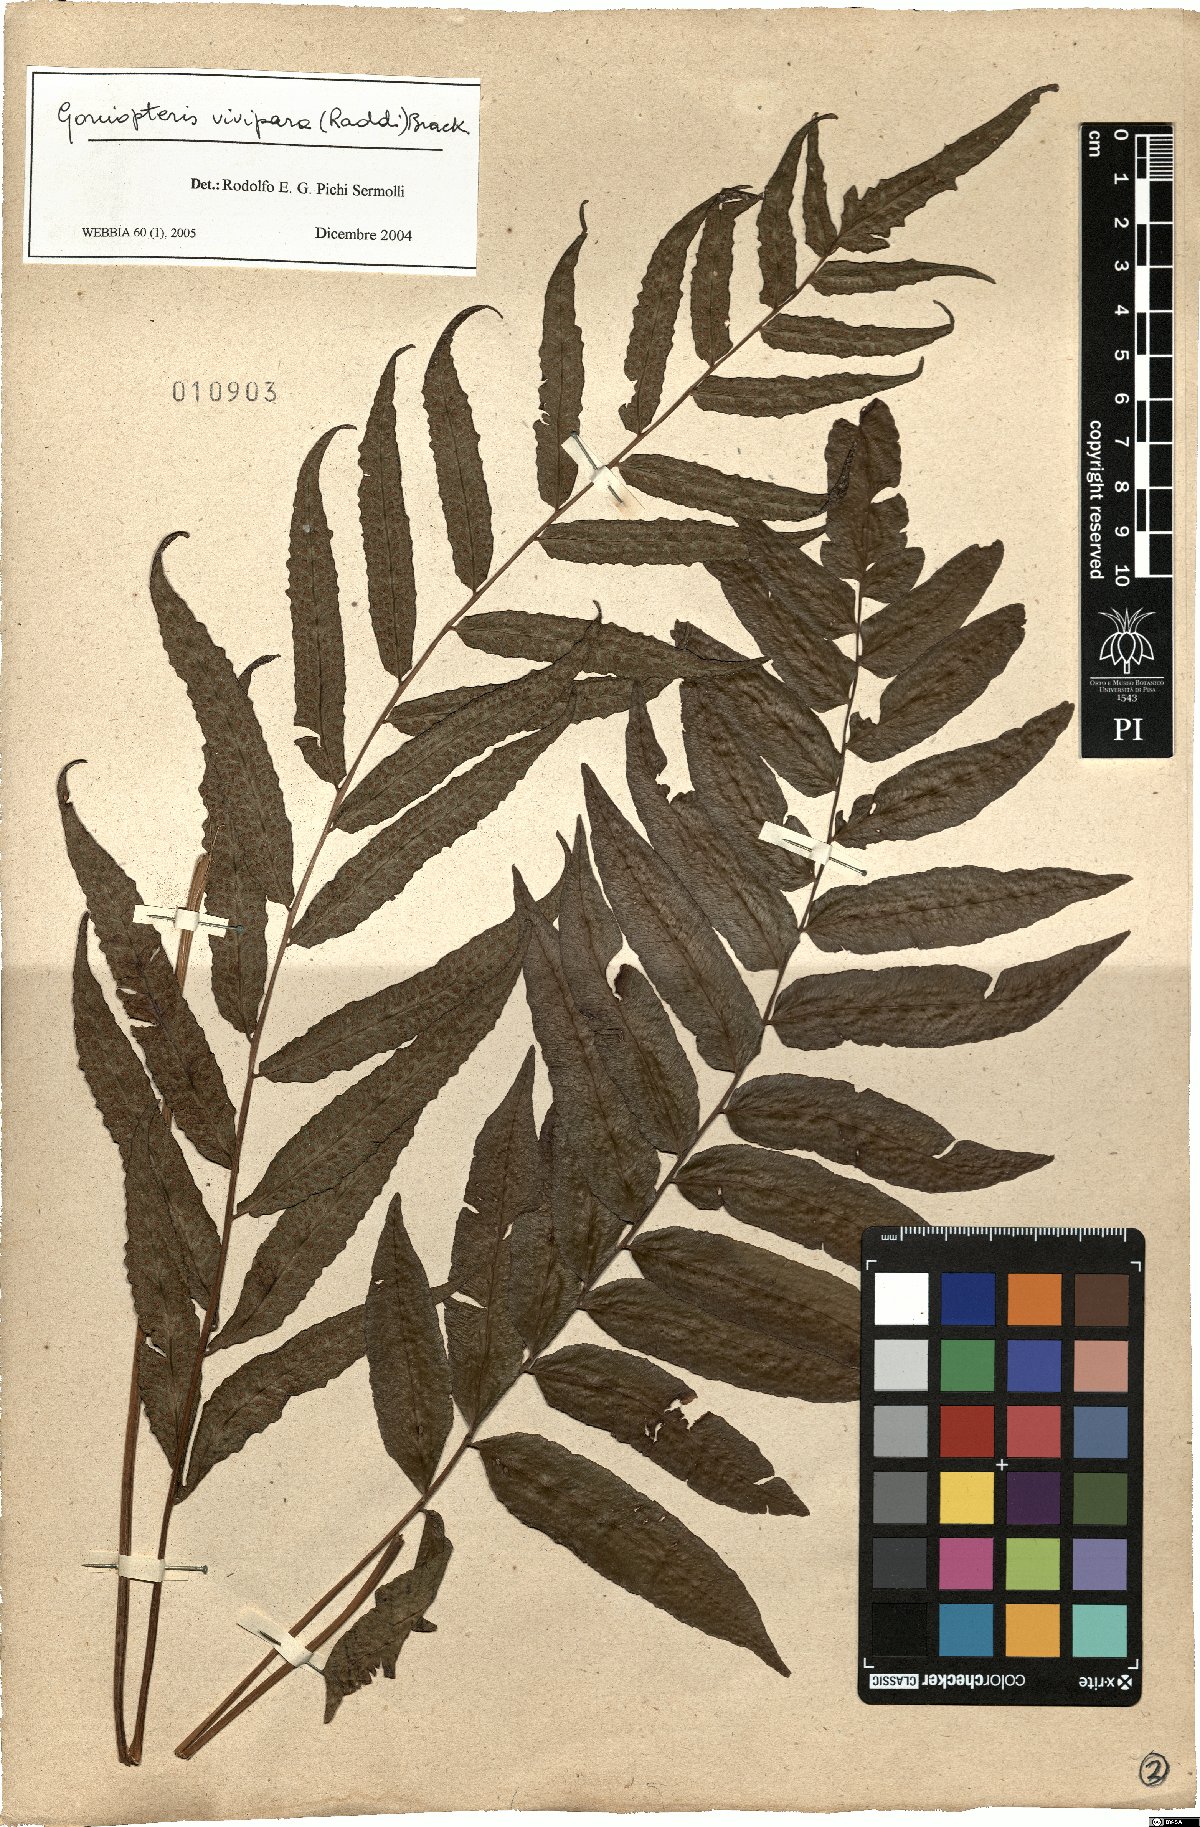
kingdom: Plantae
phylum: Tracheophyta
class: Polypodiopsida
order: Polypodiales
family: Thelypteridaceae
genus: Goniopteris
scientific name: Goniopteris vivipara
